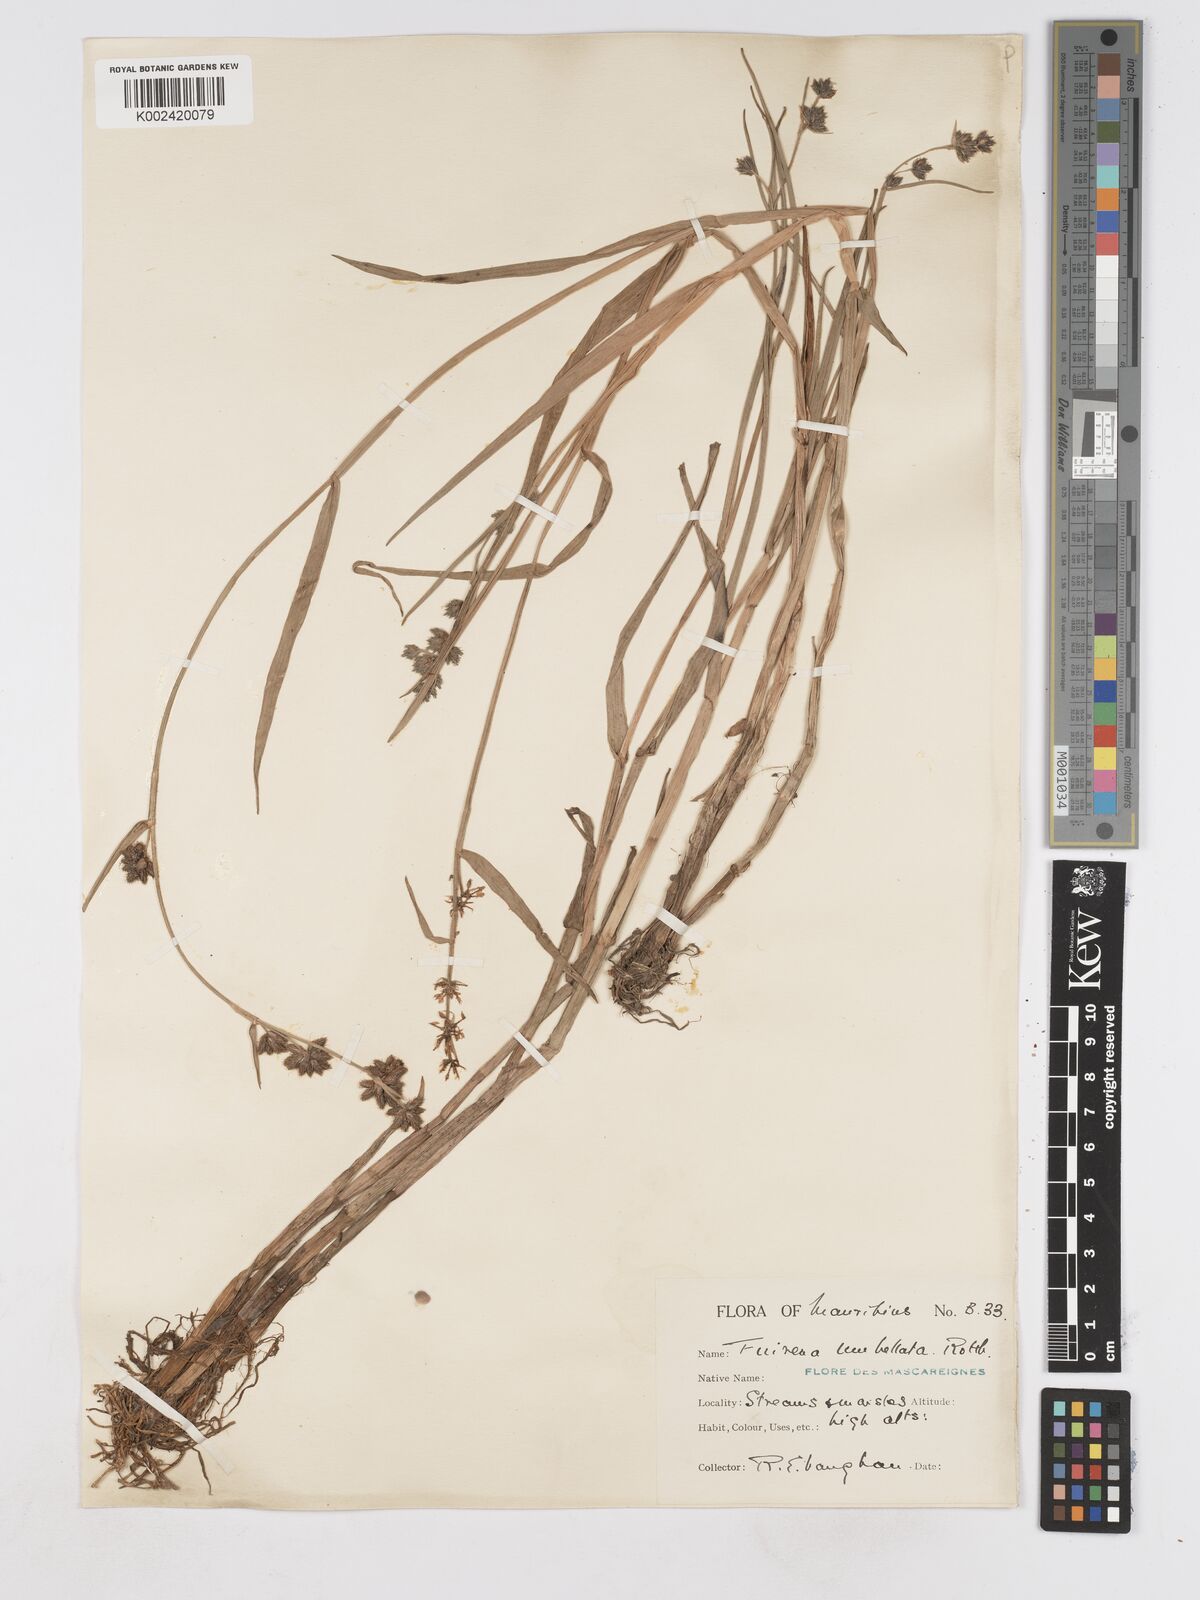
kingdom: Plantae
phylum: Tracheophyta
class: Liliopsida
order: Poales
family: Cyperaceae
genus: Fuirena
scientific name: Fuirena umbellata
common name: Yefen
